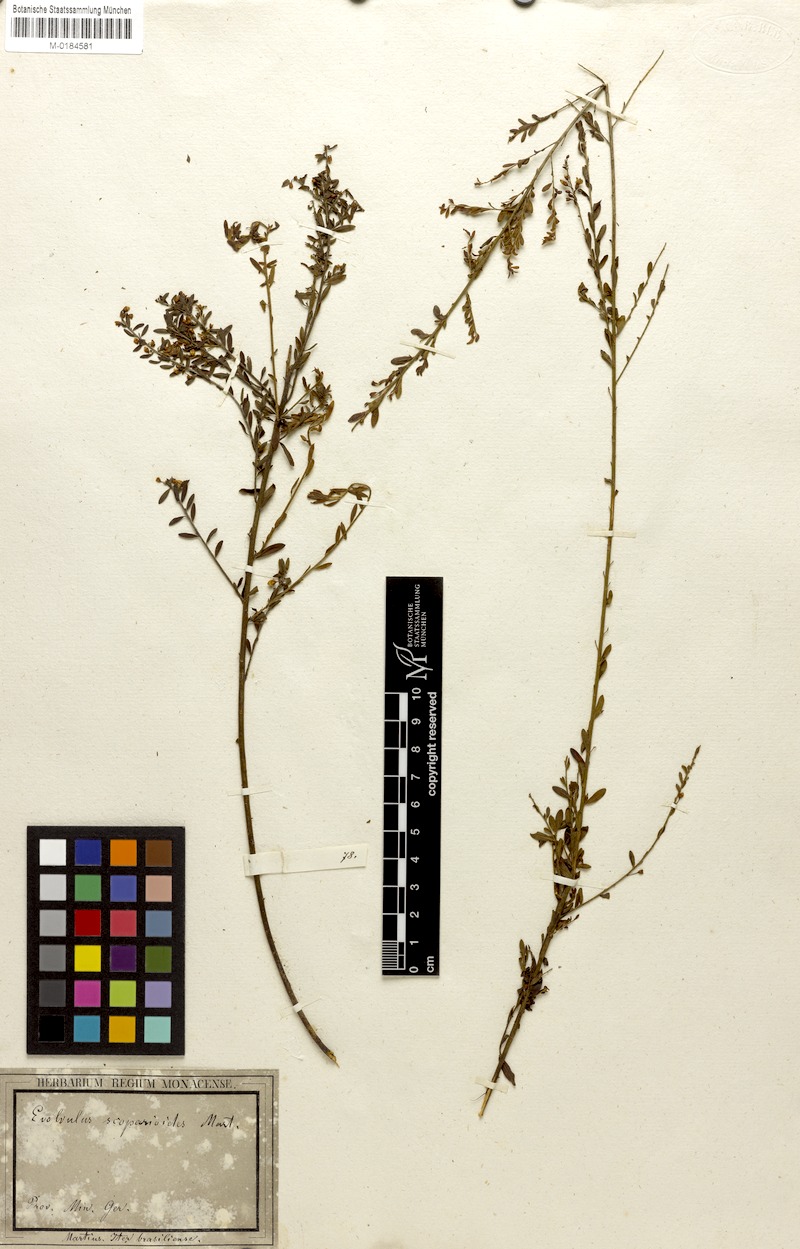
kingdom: Plantae
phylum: Tracheophyta
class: Magnoliopsida
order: Solanales
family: Convolvulaceae
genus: Evolvulus
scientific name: Evolvulus scoparioides
